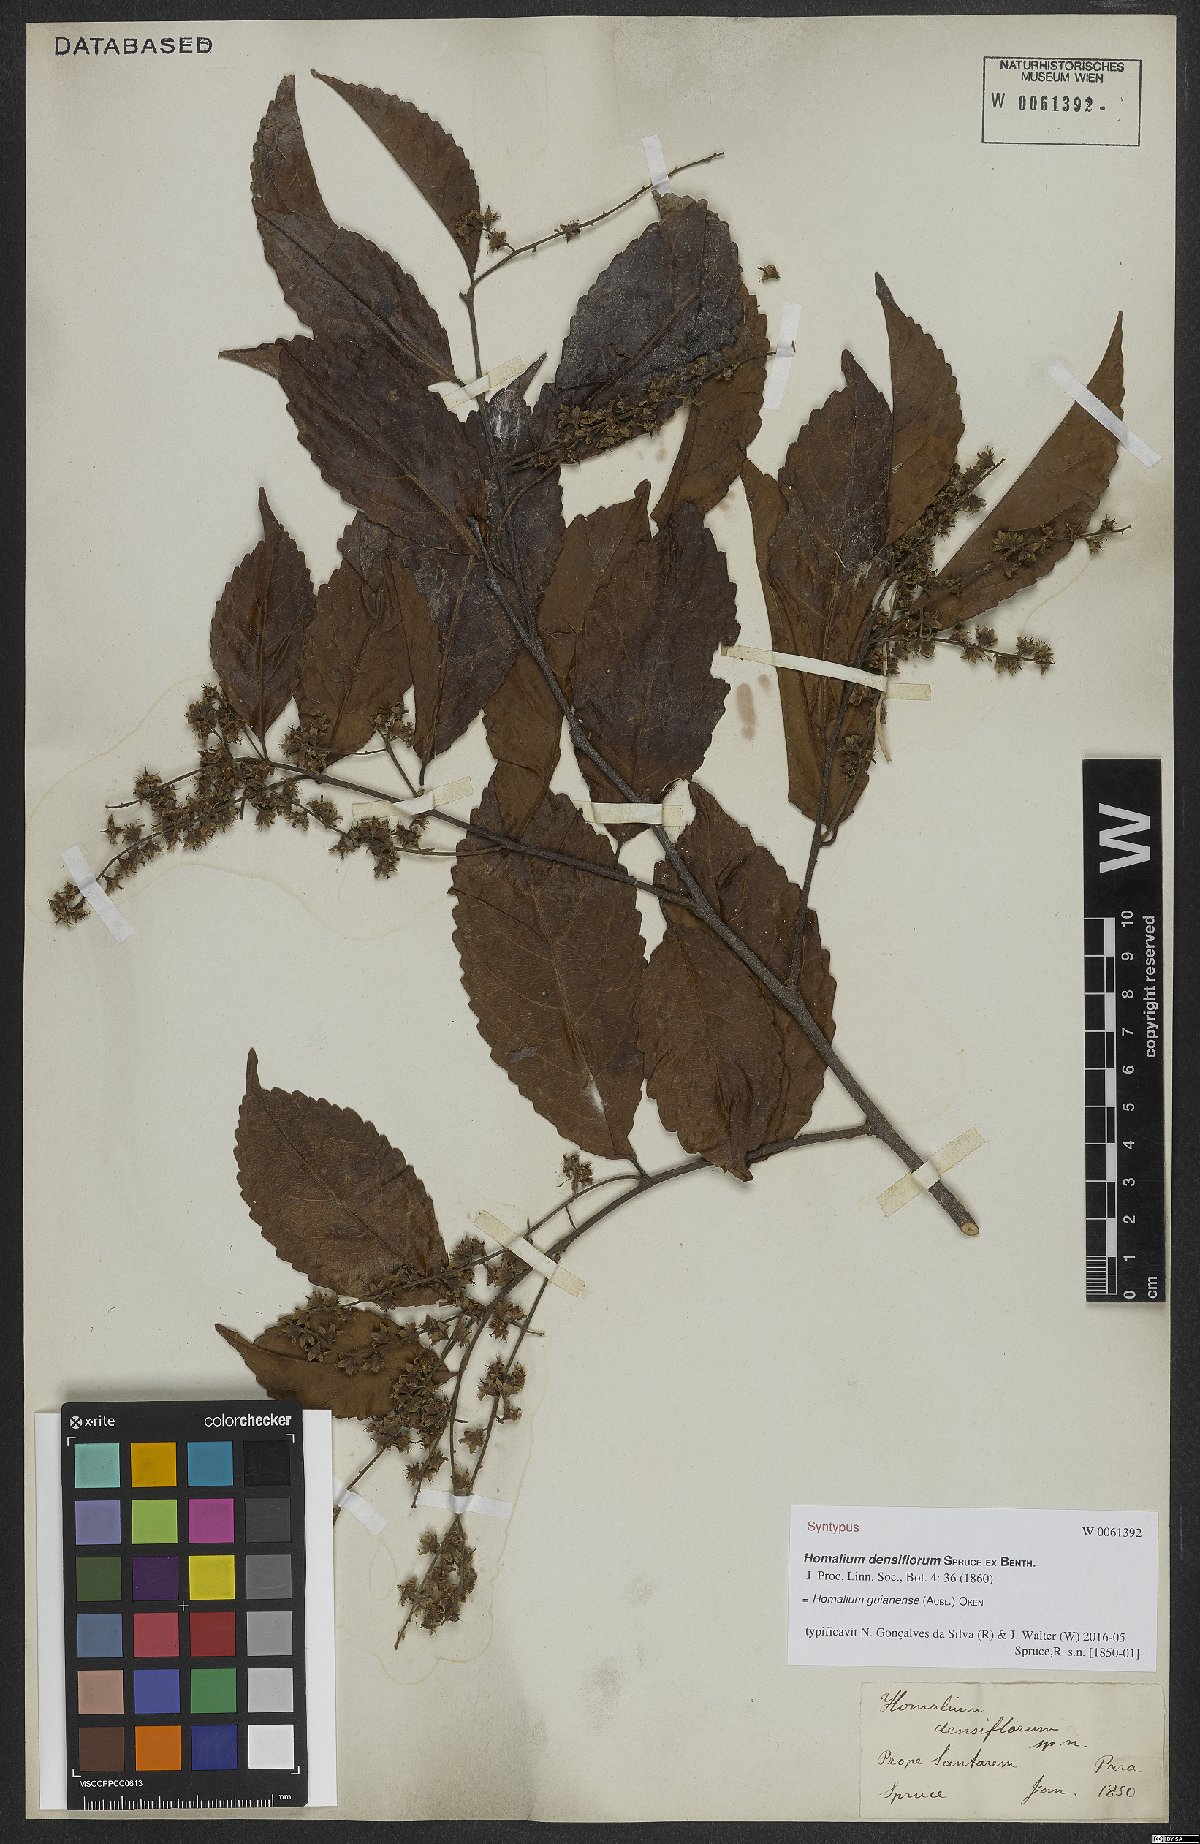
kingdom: Plantae
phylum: Tracheophyta
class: Magnoliopsida
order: Malpighiales
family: Salicaceae
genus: Homalium
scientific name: Homalium guianense
